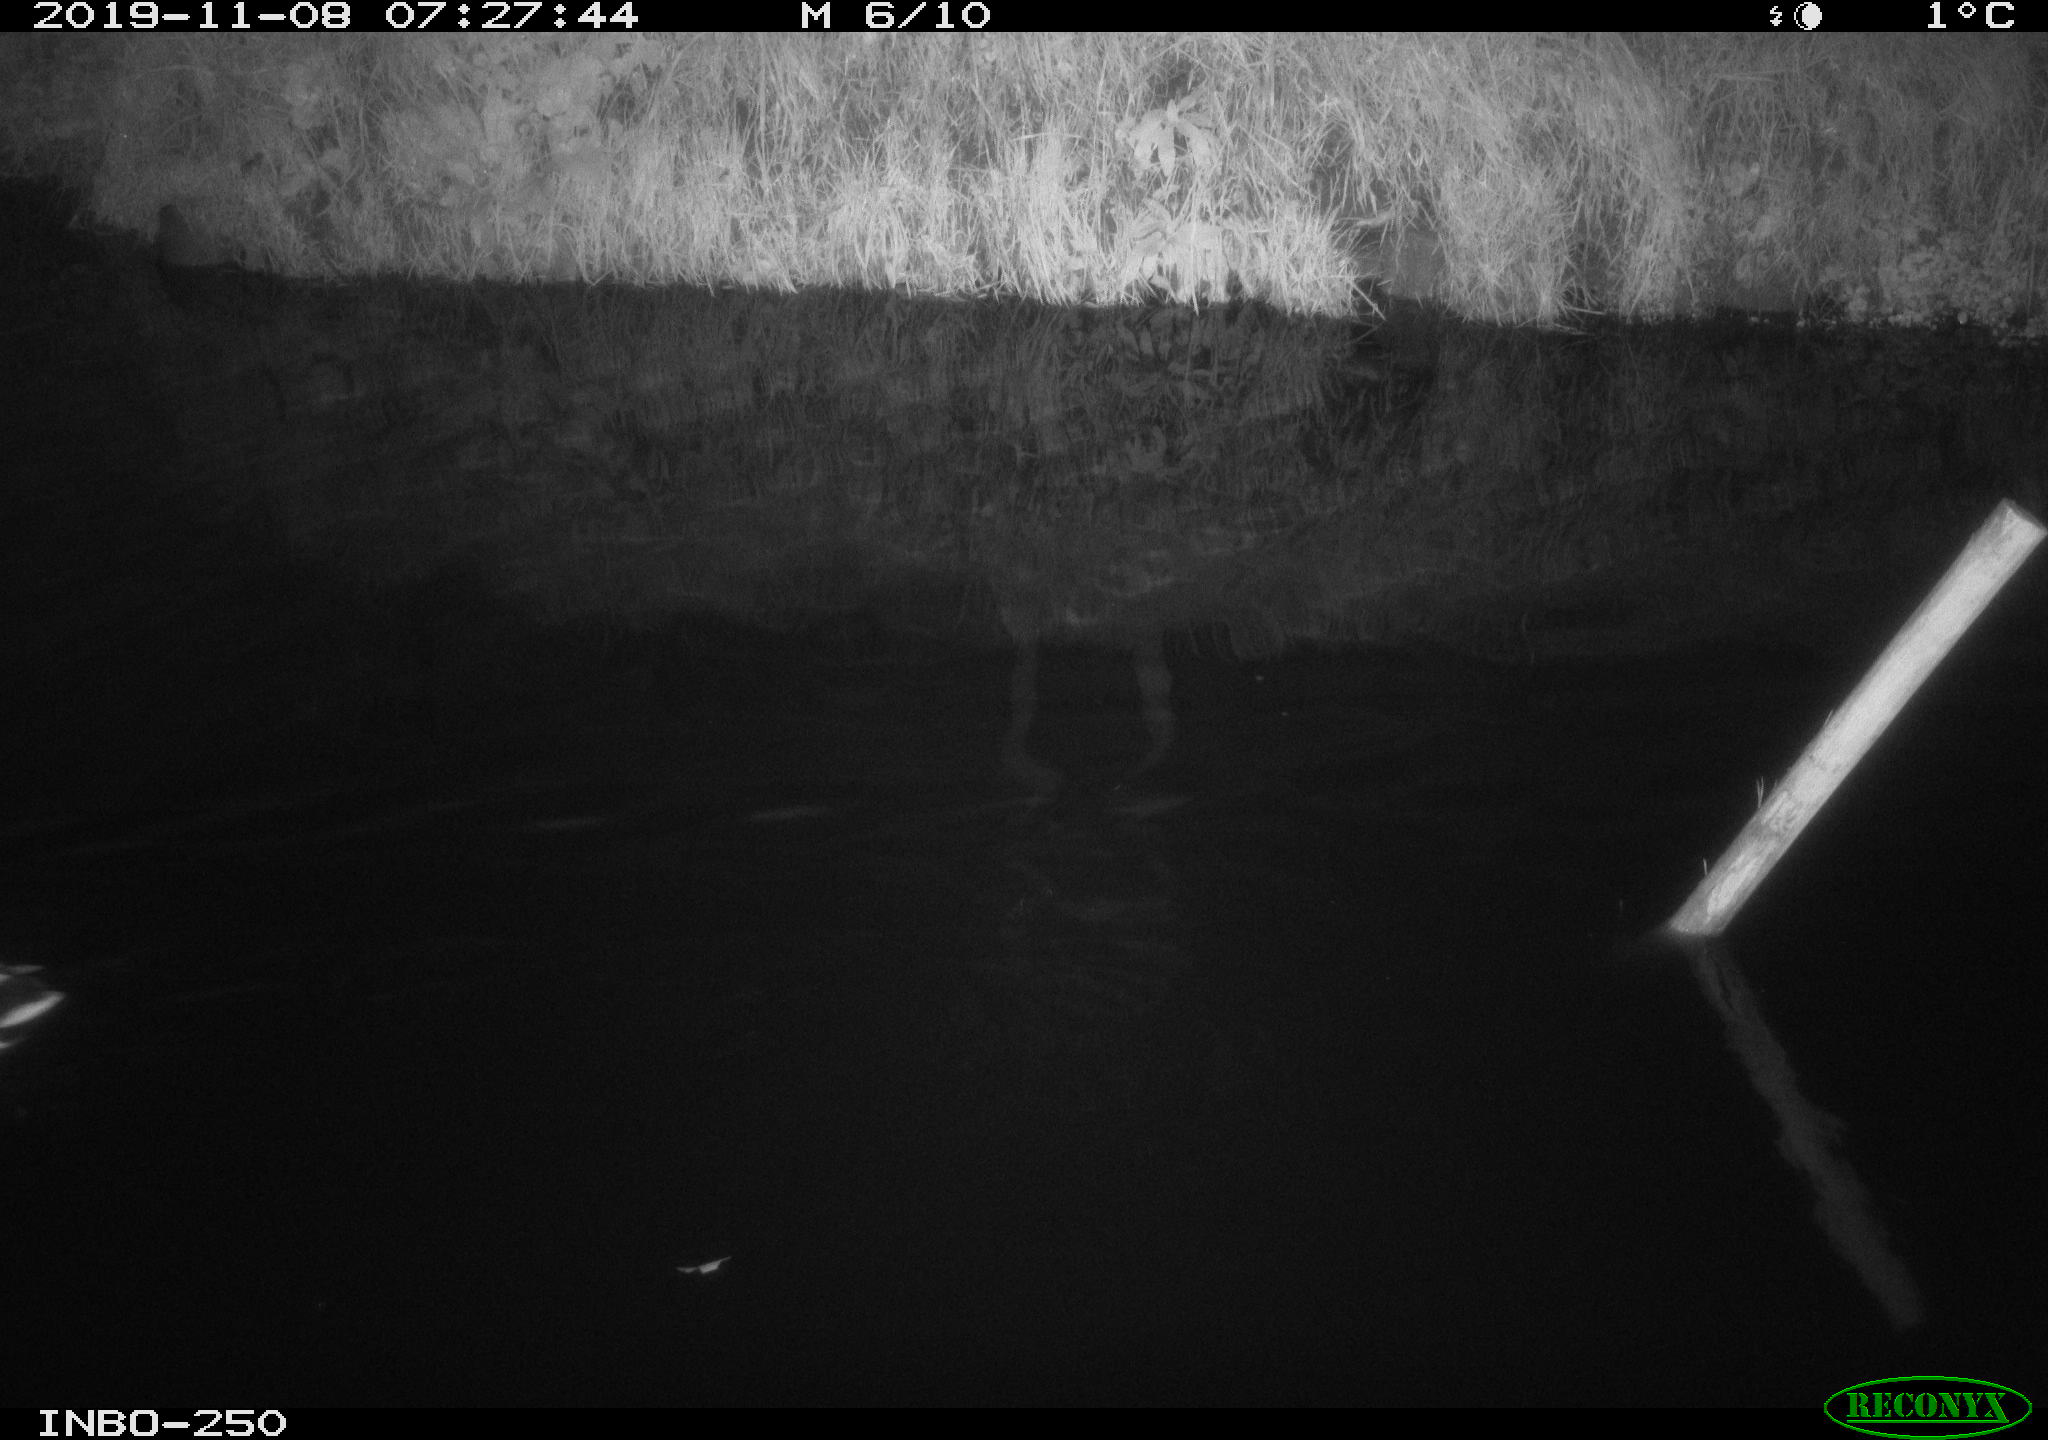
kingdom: Animalia
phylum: Chordata
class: Aves
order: Anseriformes
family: Anatidae
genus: Anas
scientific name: Anas platyrhynchos
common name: Mallard
